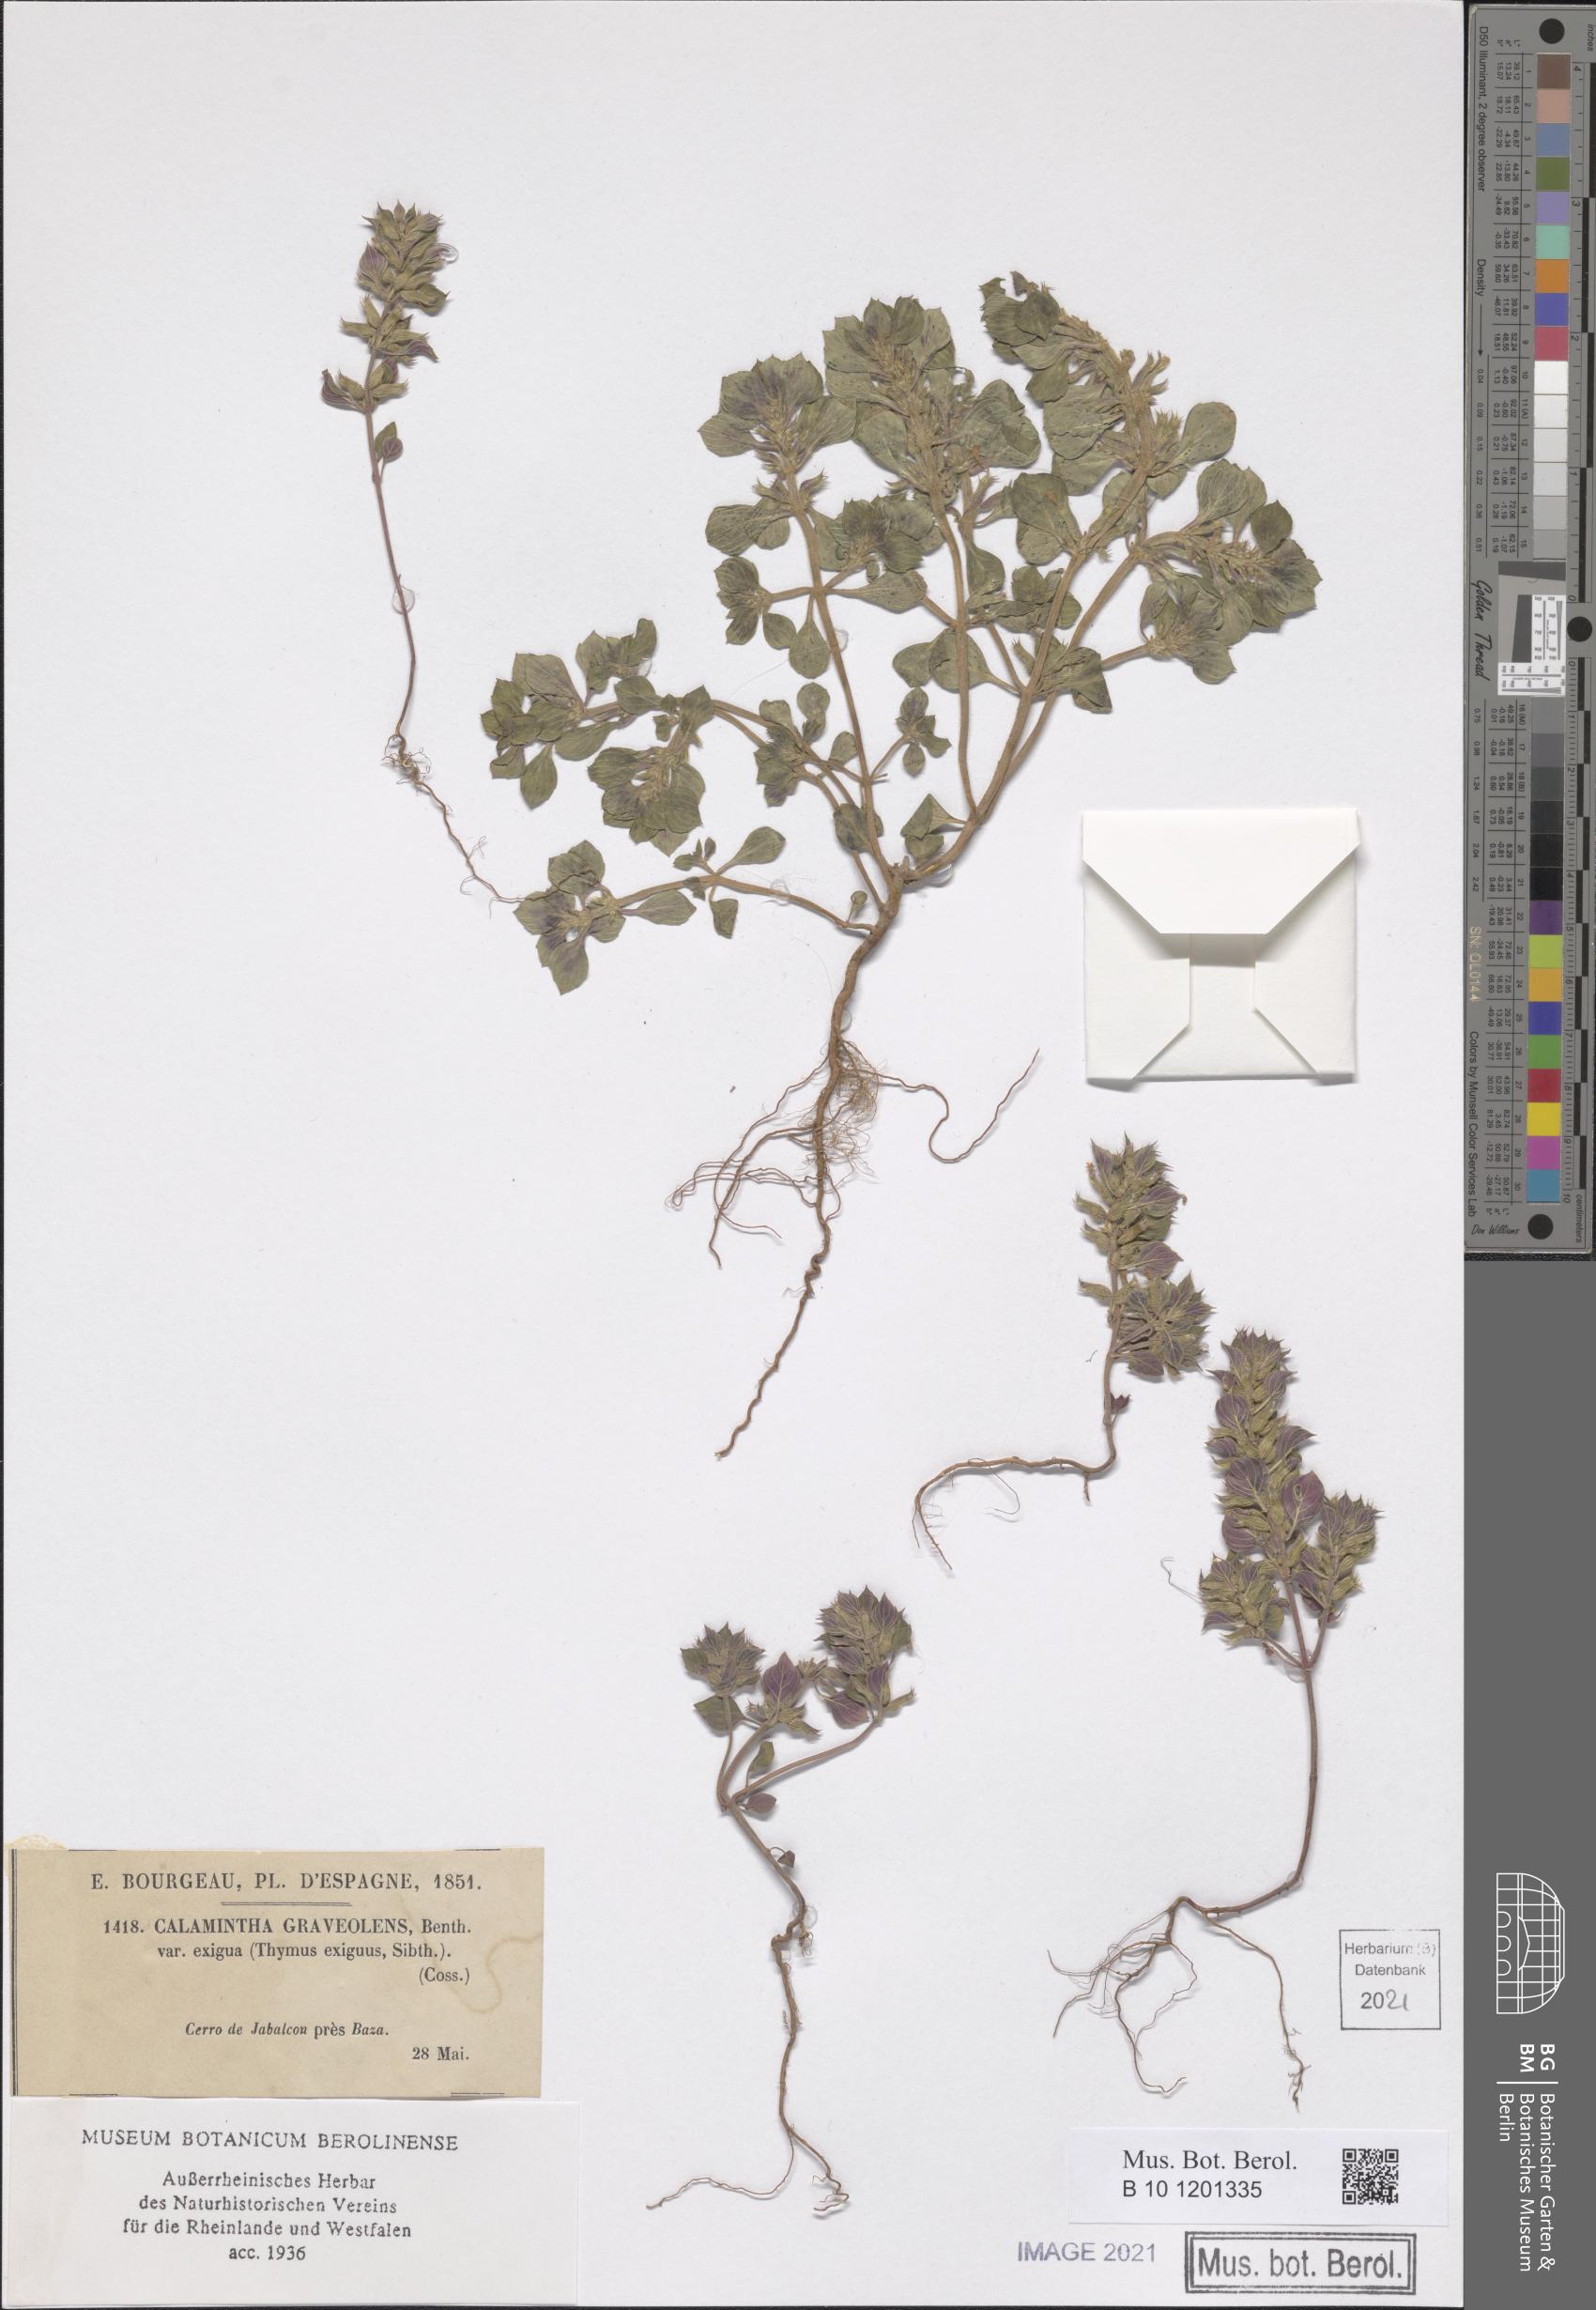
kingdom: Plantae
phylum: Tracheophyta
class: Magnoliopsida
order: Lamiales
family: Lamiaceae
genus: Clinopodium
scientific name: Clinopodium graveolens
